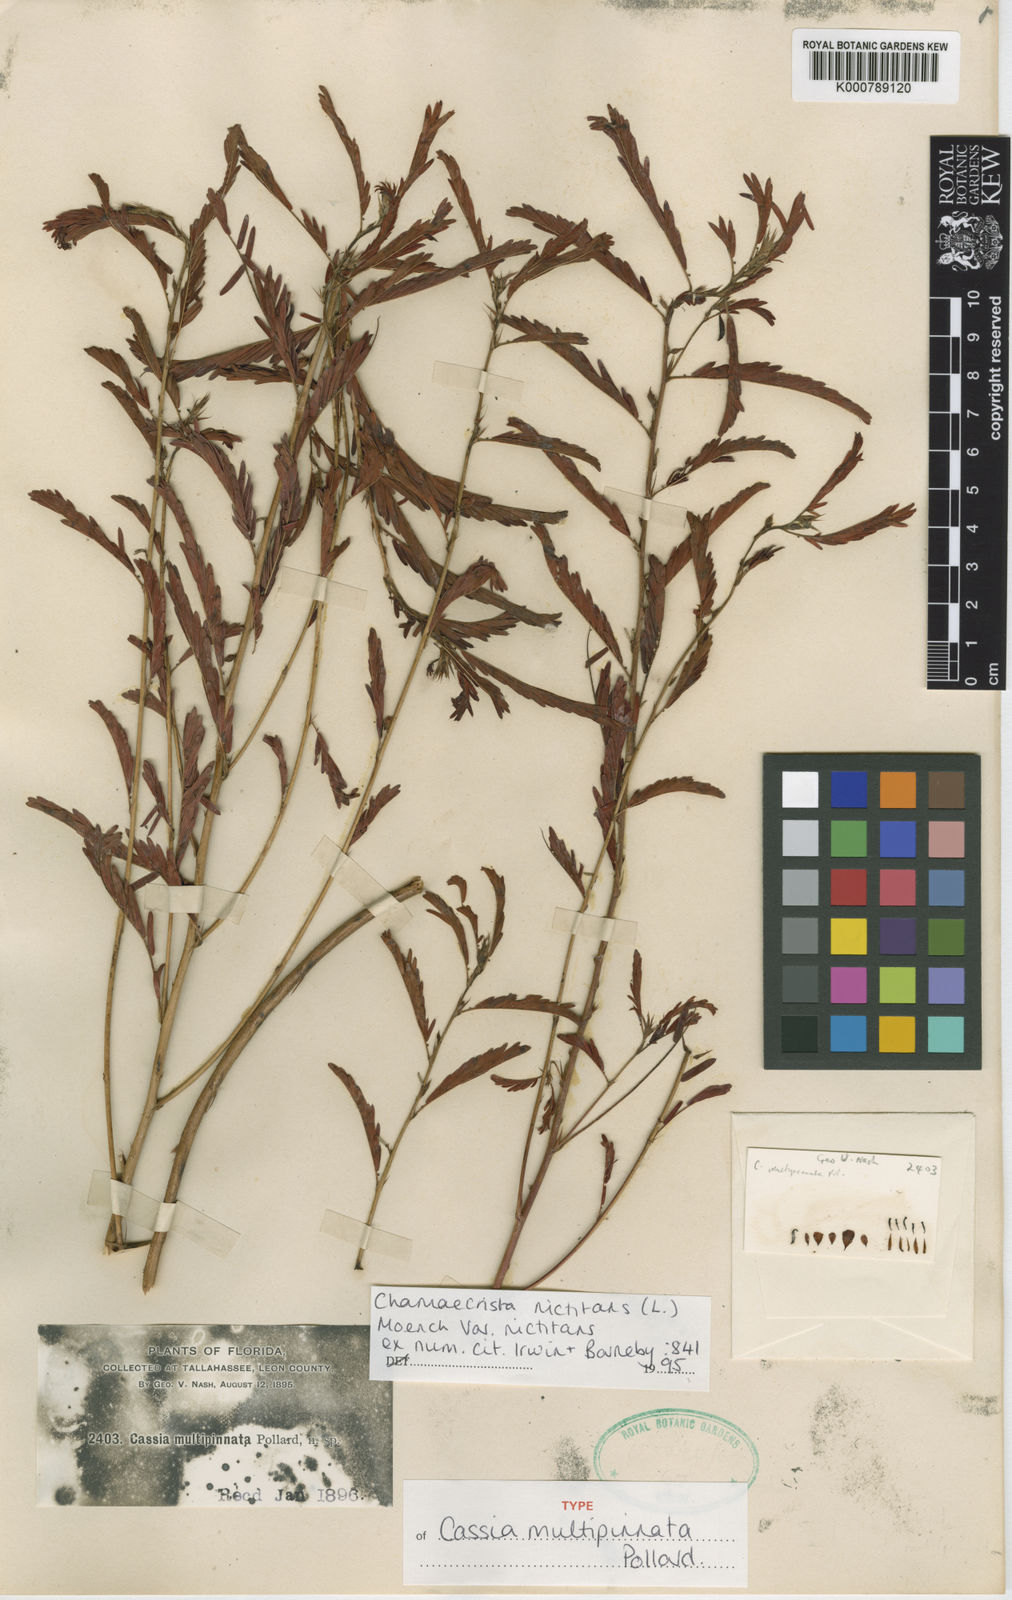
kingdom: Plantae
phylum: Tracheophyta
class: Magnoliopsida
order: Fabales
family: Fabaceae
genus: Chamaecrista
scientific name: Chamaecrista nictitans
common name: Sensitive cassia
